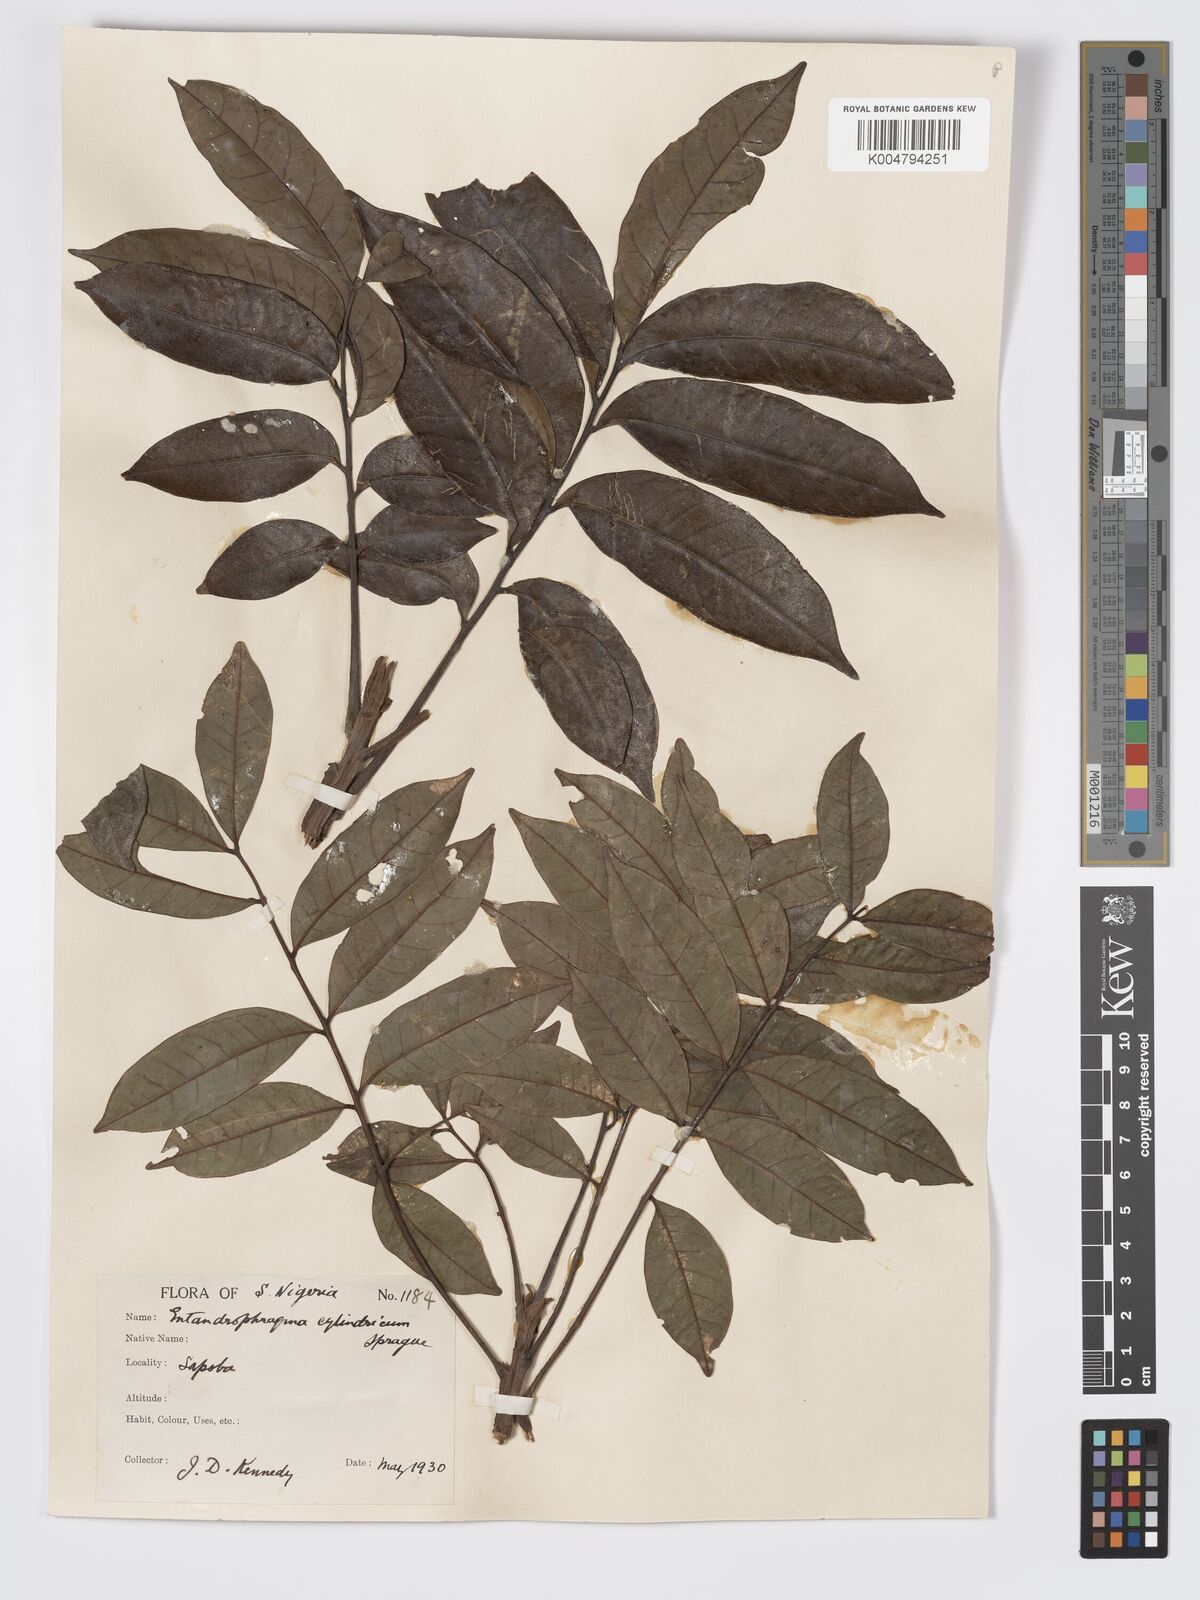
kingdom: Plantae
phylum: Tracheophyta
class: Magnoliopsida
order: Sapindales
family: Meliaceae
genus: Entandrophragma
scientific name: Entandrophragma cylindricum
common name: Sapele
